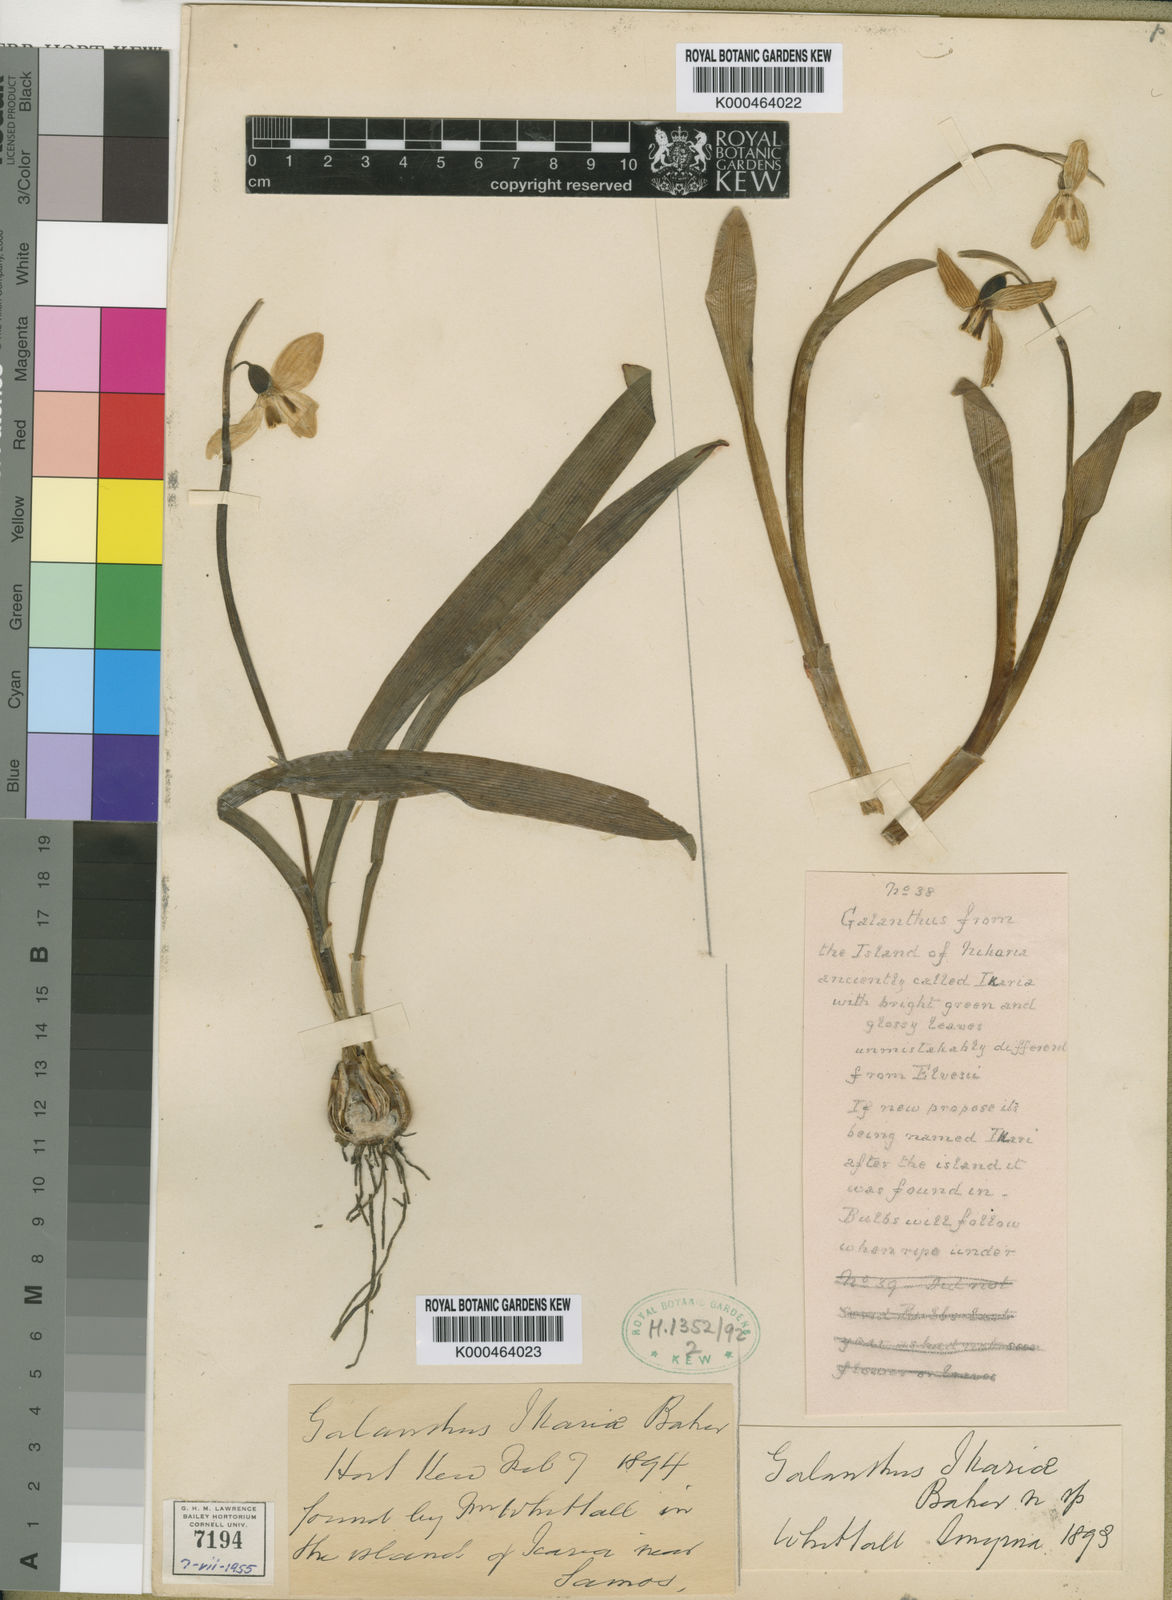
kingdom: Plantae
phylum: Tracheophyta
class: Liliopsida
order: Asparagales
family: Amaryllidaceae
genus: Galanthus
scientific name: Galanthus ikariae
